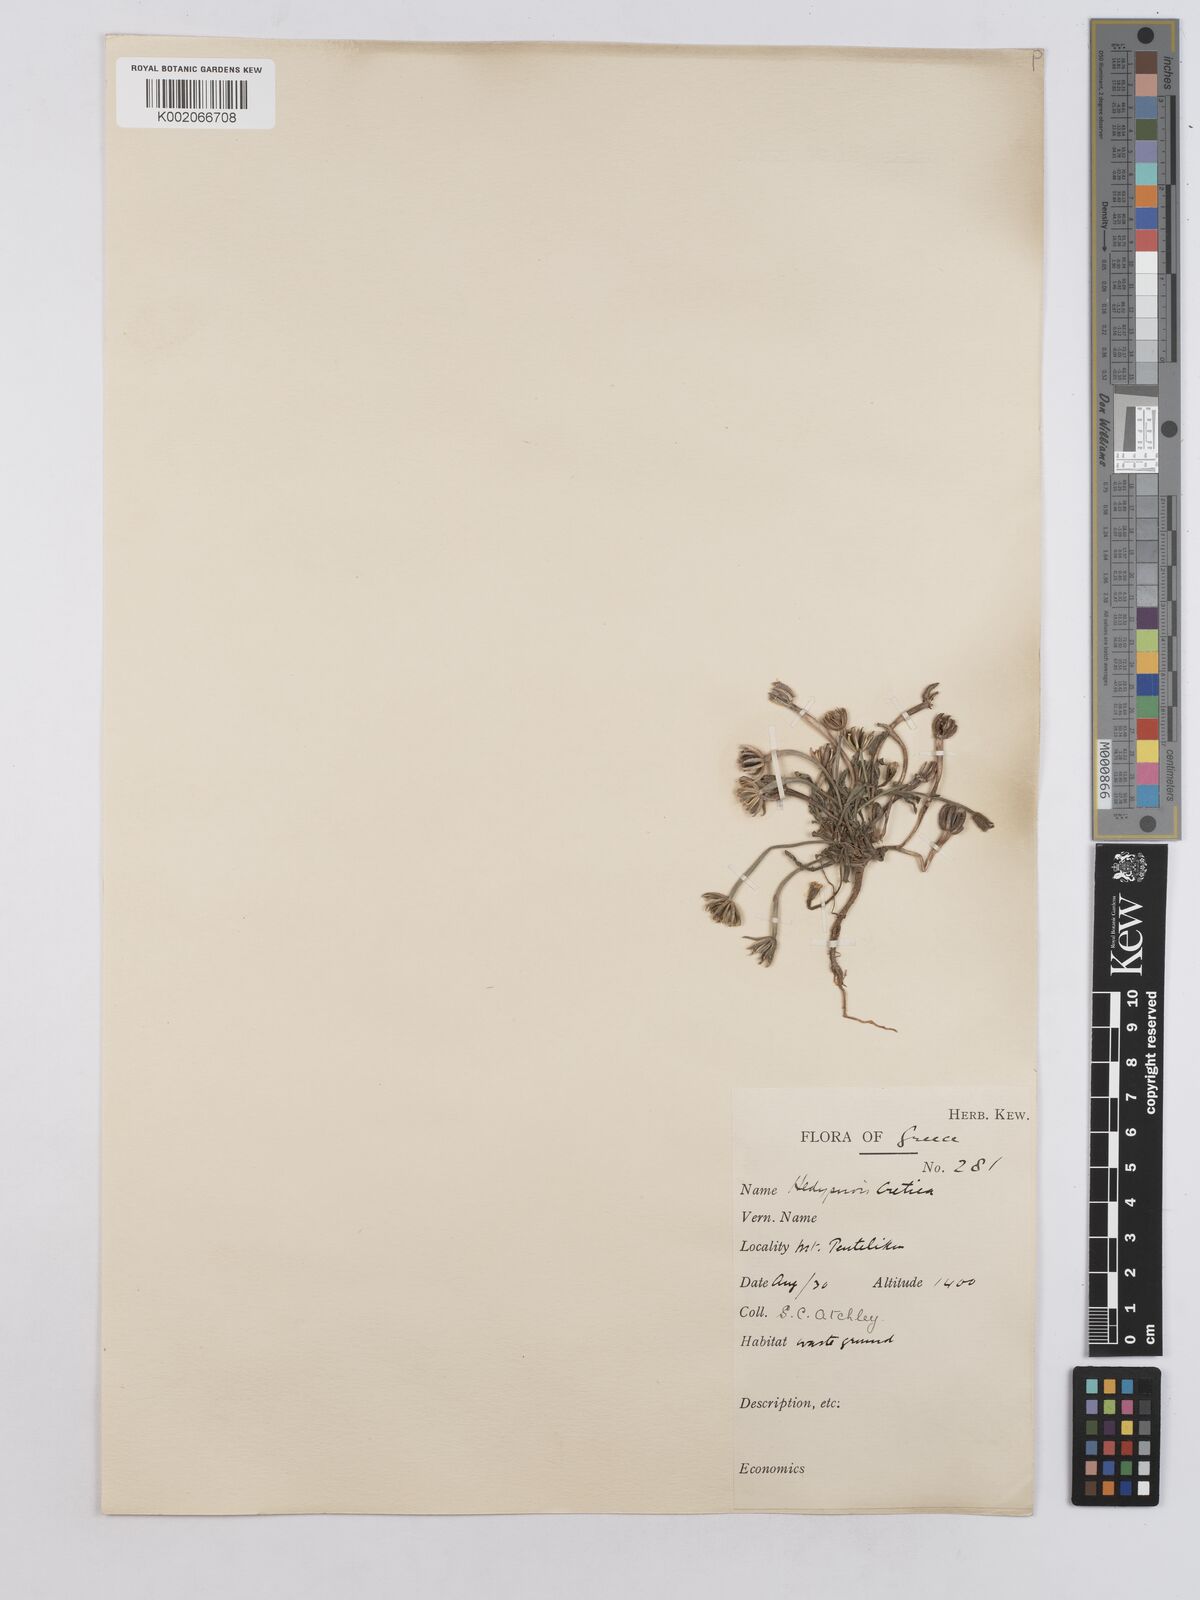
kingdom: Plantae
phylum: Tracheophyta
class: Magnoliopsida
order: Asterales
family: Asteraceae
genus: Hedypnois
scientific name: Hedypnois rhagadioloides
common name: Cretan weed
